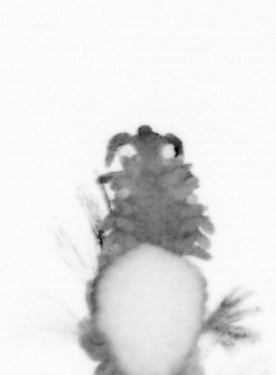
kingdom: Animalia
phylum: Annelida
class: Polychaeta
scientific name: Polychaeta
